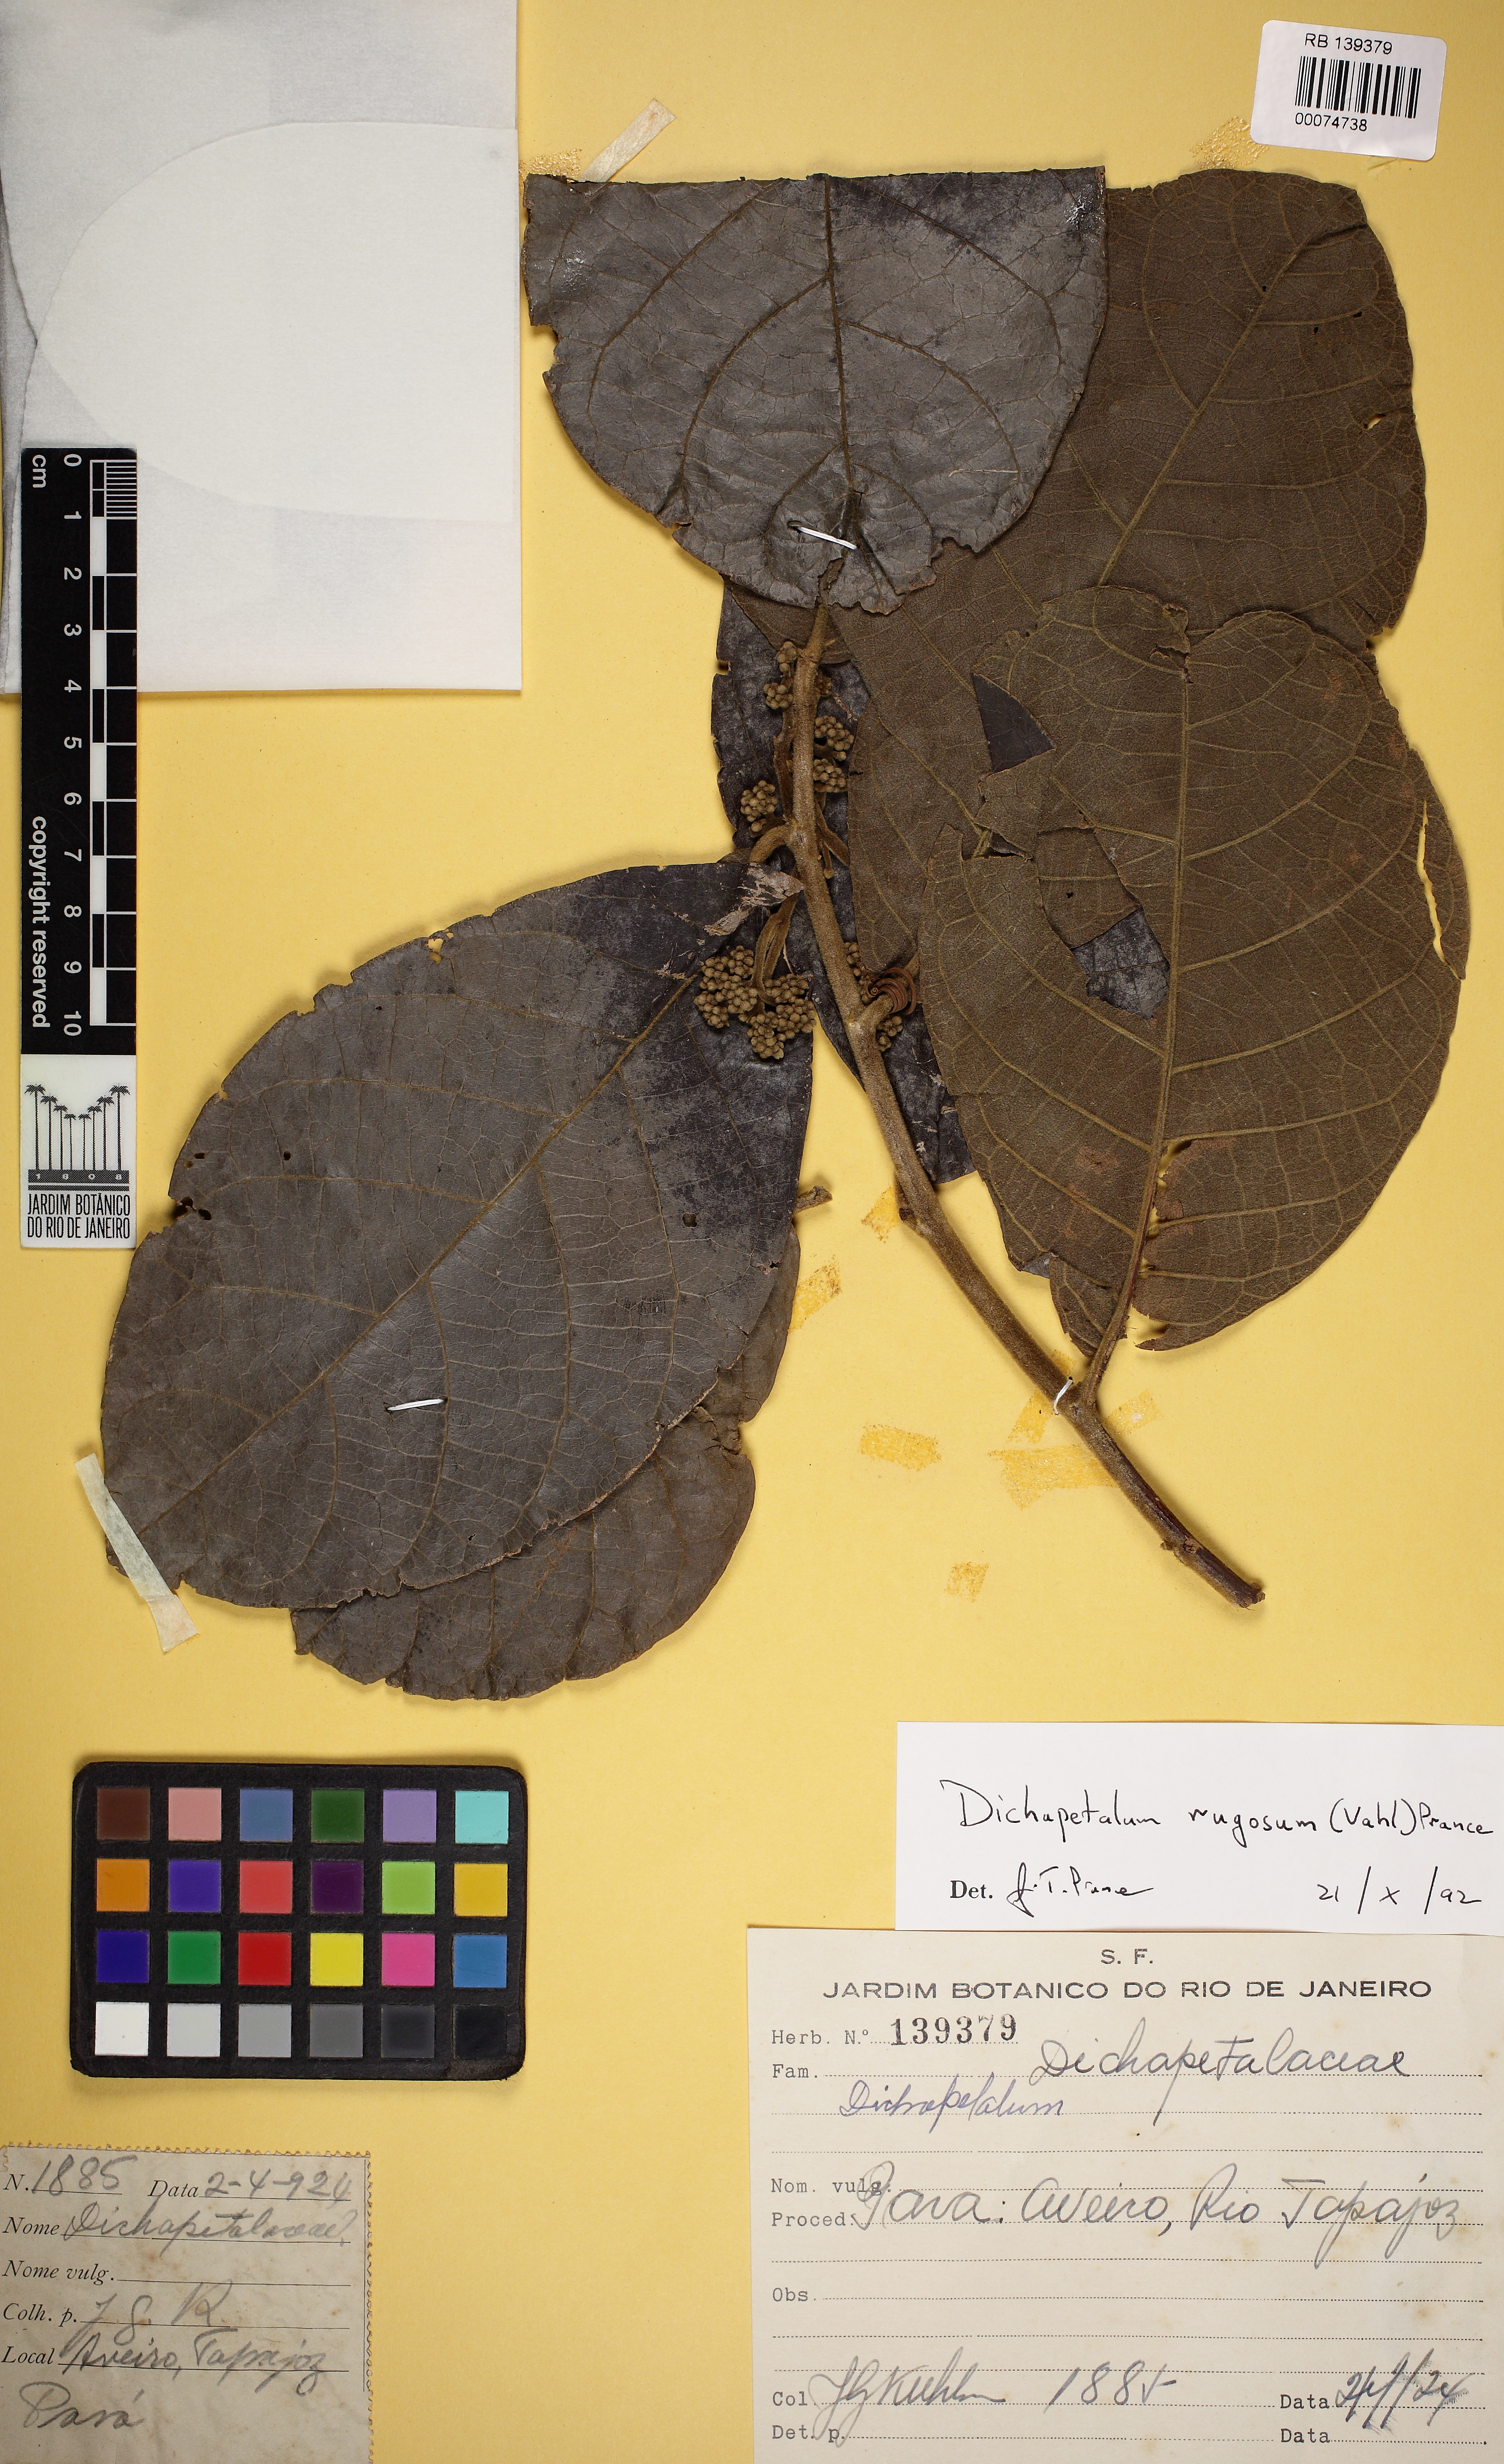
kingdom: Plantae
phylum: Tracheophyta
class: Magnoliopsida
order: Malpighiales
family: Dichapetalaceae
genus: Dichapetalum
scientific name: Dichapetalum rugosum
